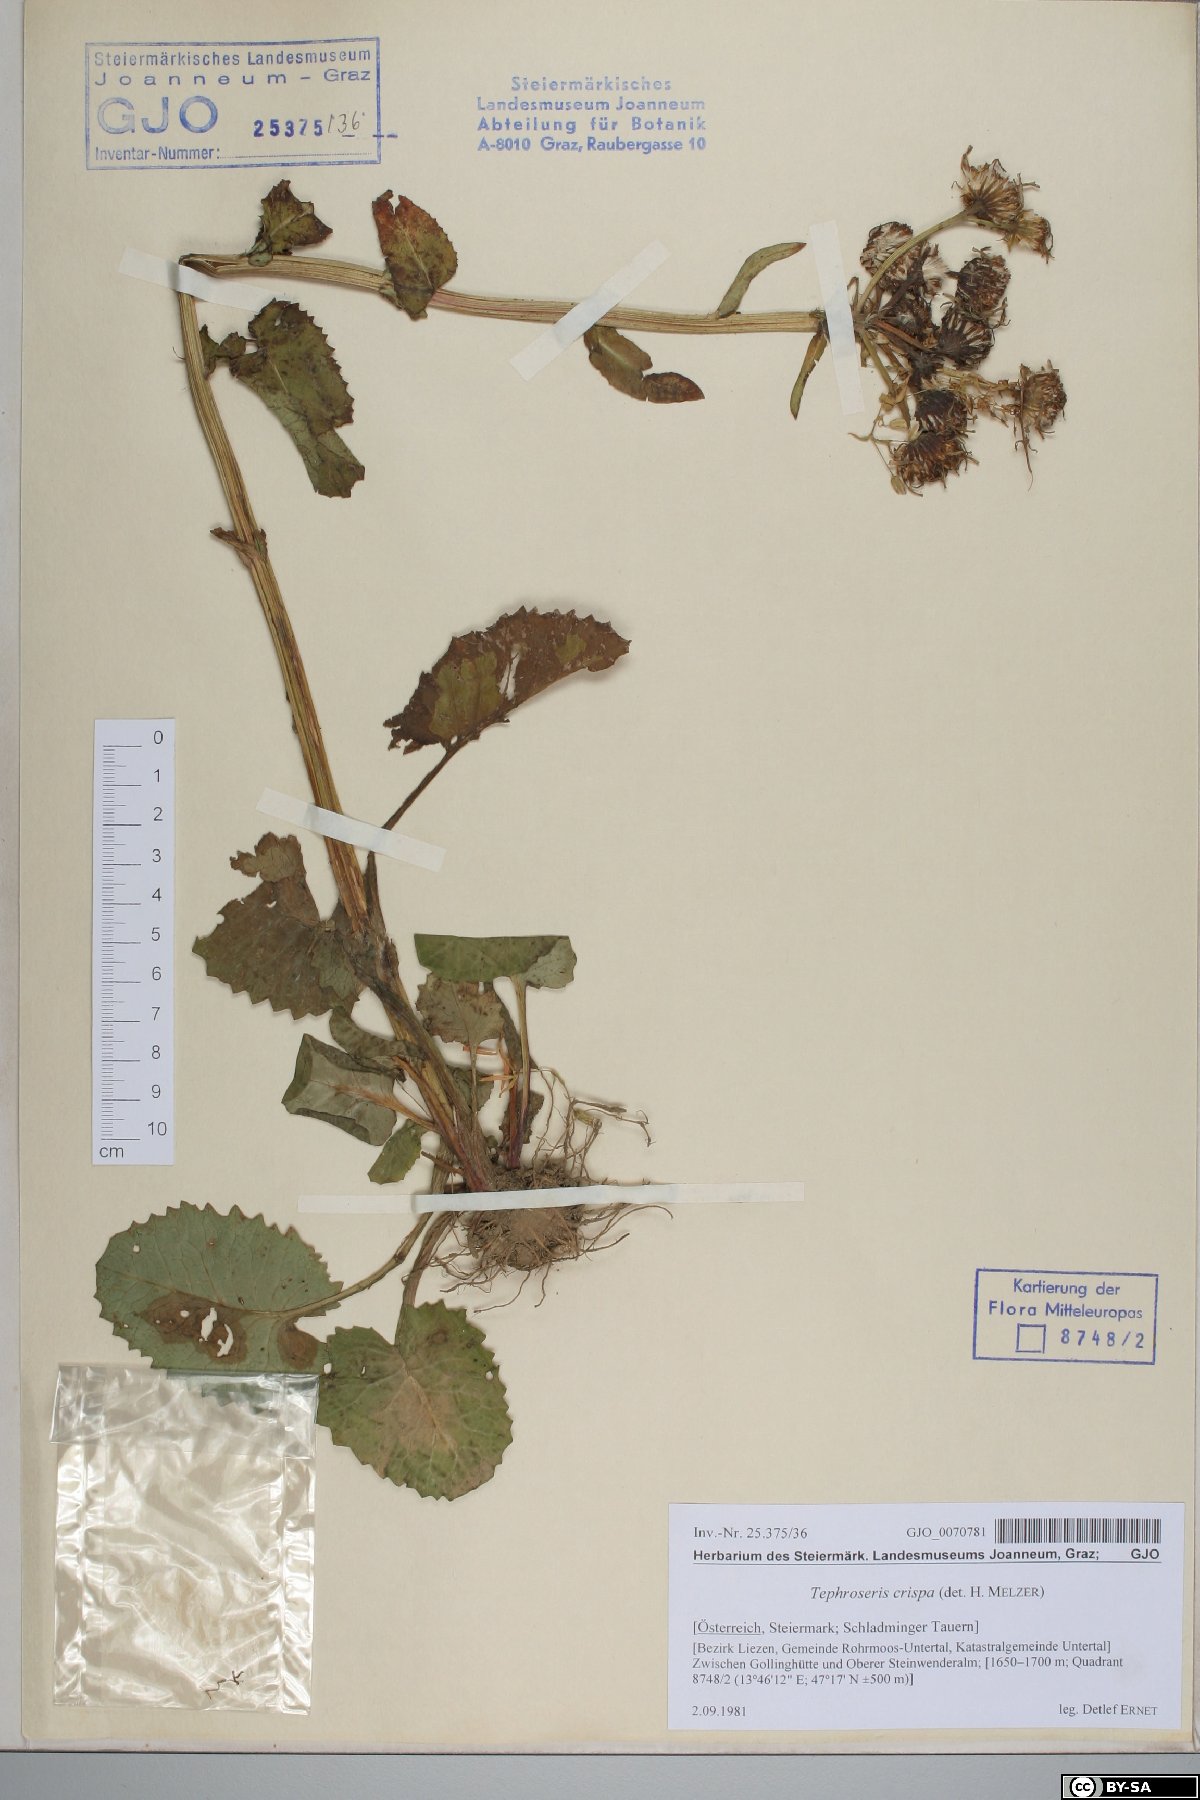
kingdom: Plantae
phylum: Tracheophyta
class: Magnoliopsida
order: Asterales
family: Asteraceae
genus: Tephroseris
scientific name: Tephroseris crispa
